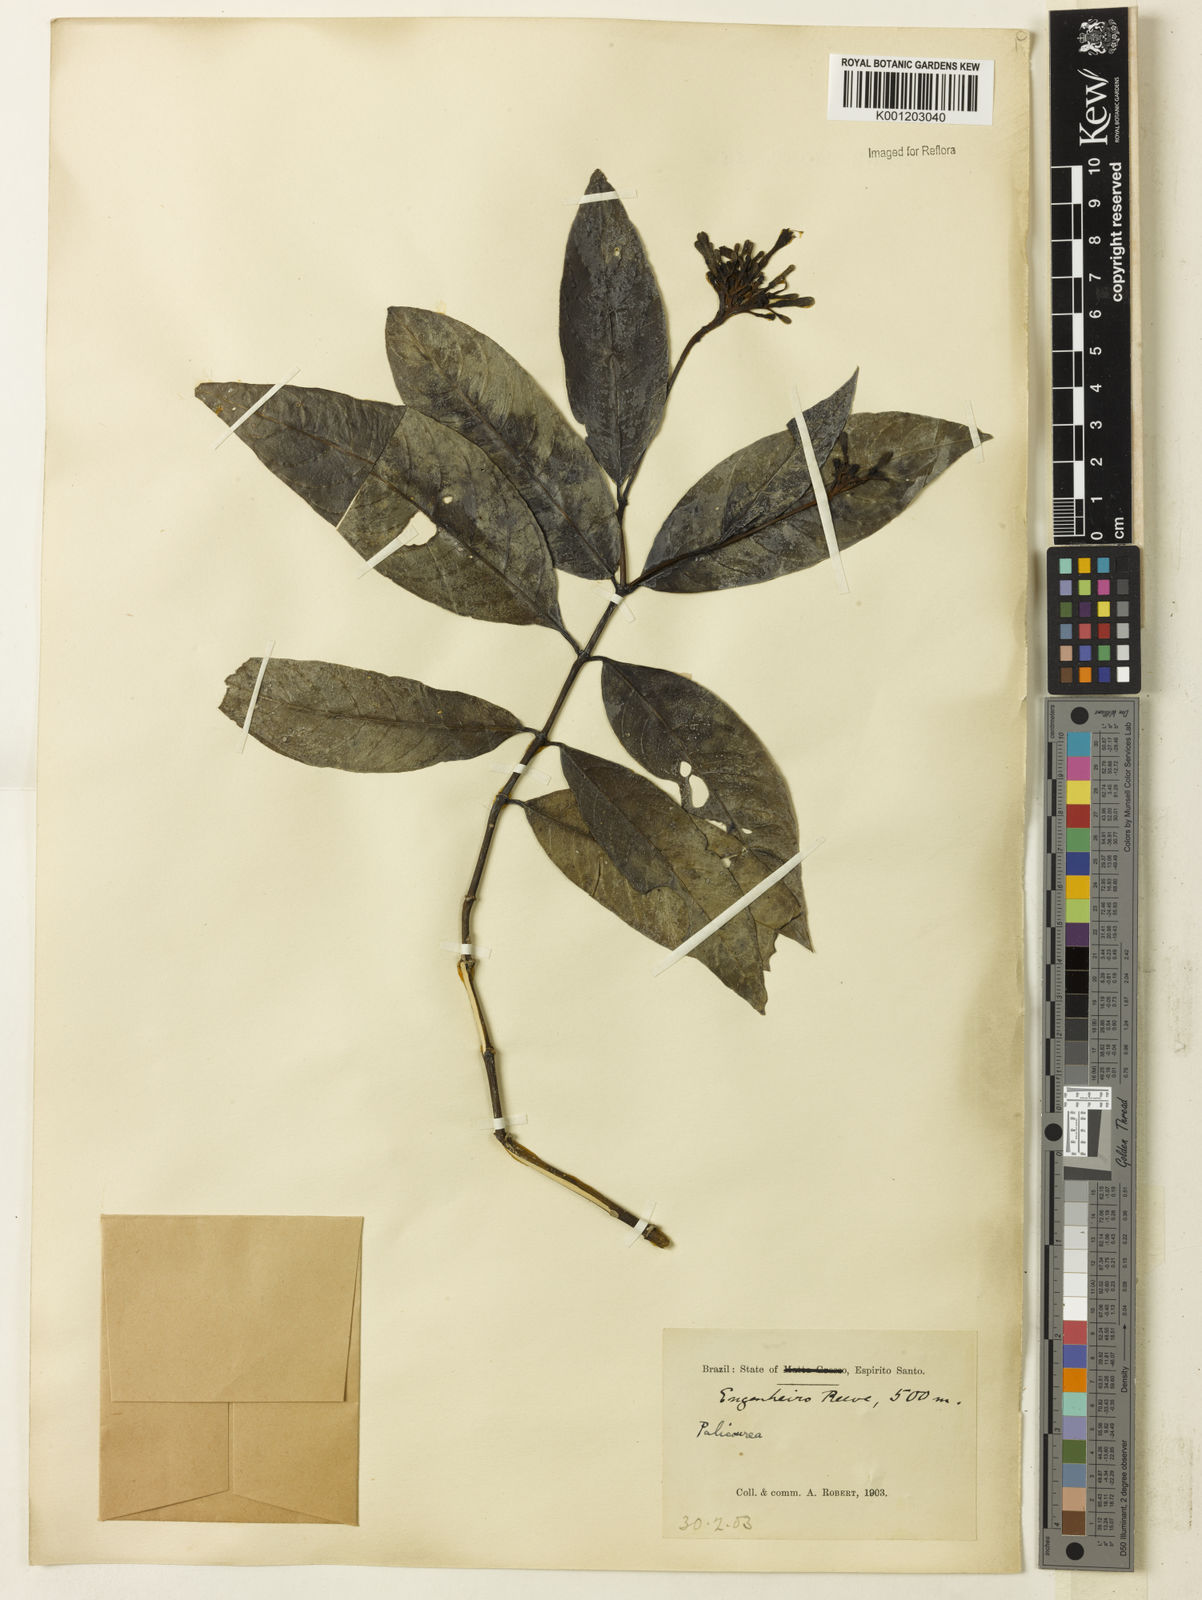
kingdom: Plantae
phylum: Tracheophyta
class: Magnoliopsida
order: Gentianales
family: Rubiaceae
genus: Palicourea
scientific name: Palicourea marcgravii
